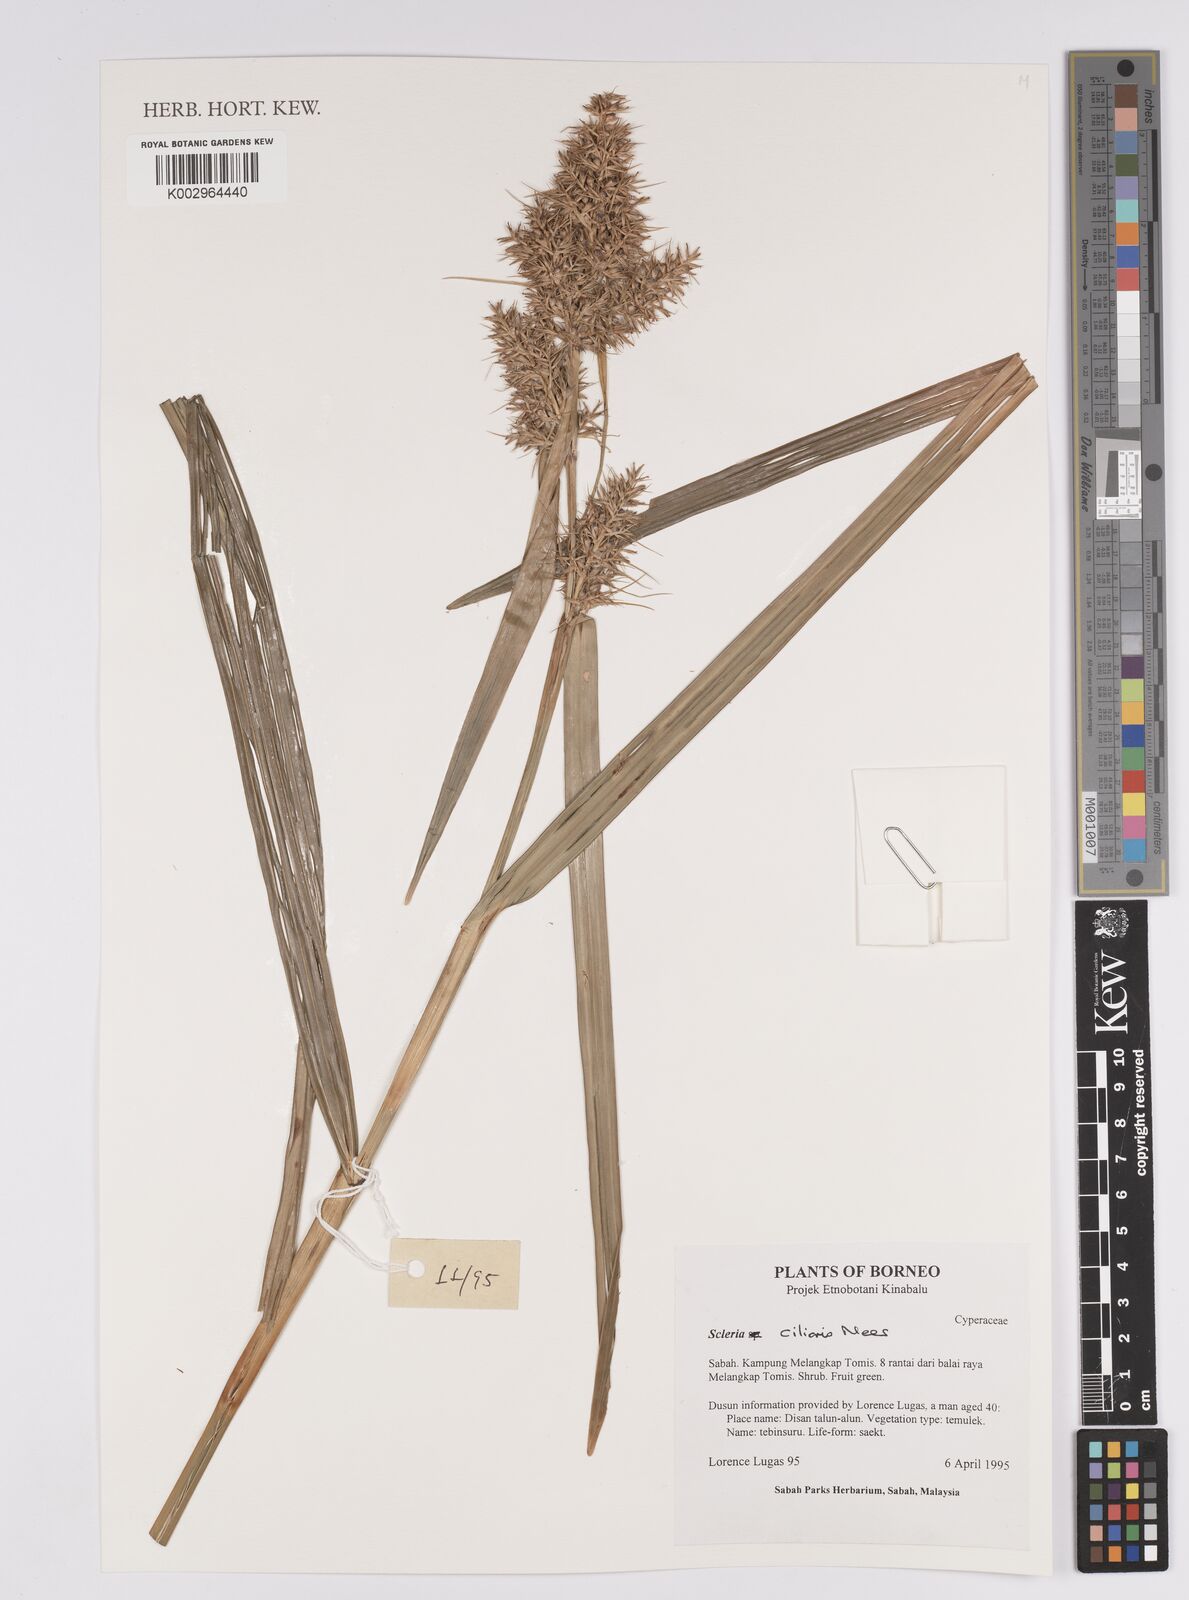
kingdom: Plantae
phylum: Tracheophyta
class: Liliopsida
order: Poales
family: Cyperaceae
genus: Scleria
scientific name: Scleria ciliaris
